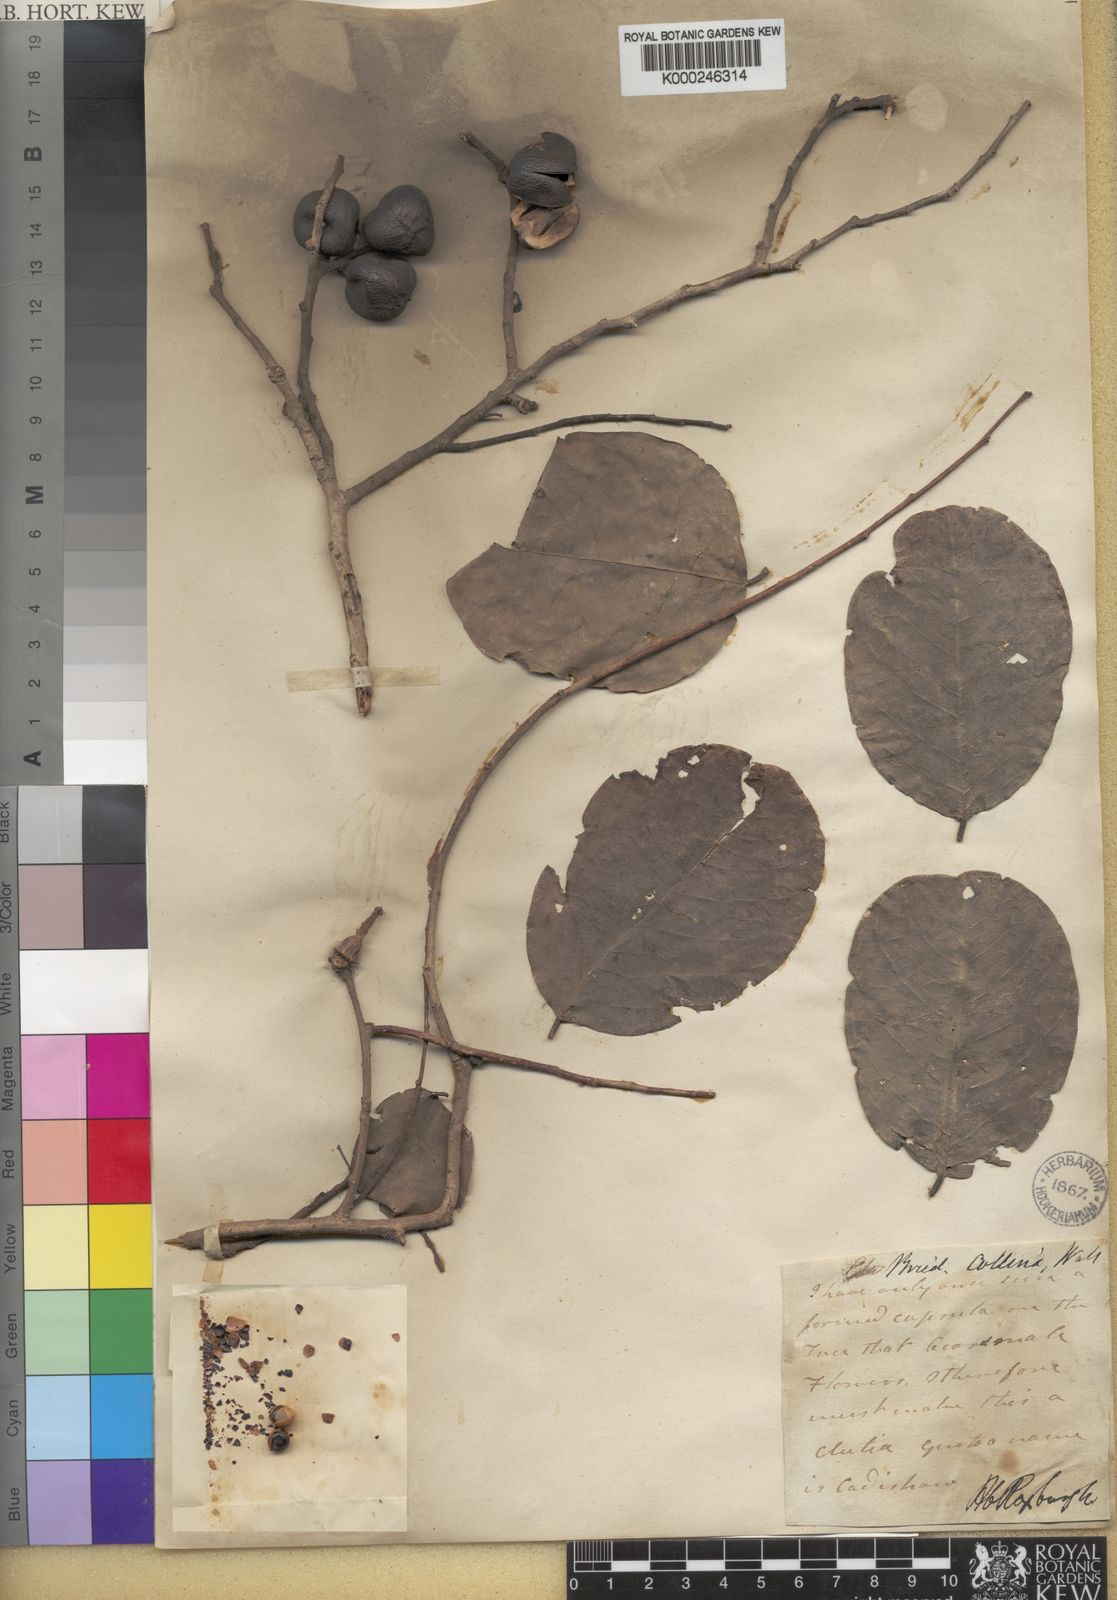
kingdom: Plantae
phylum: Tracheophyta
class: Magnoliopsida
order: Malpighiales
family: Phyllanthaceae
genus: Cleistanthus
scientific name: Cleistanthus collinus
